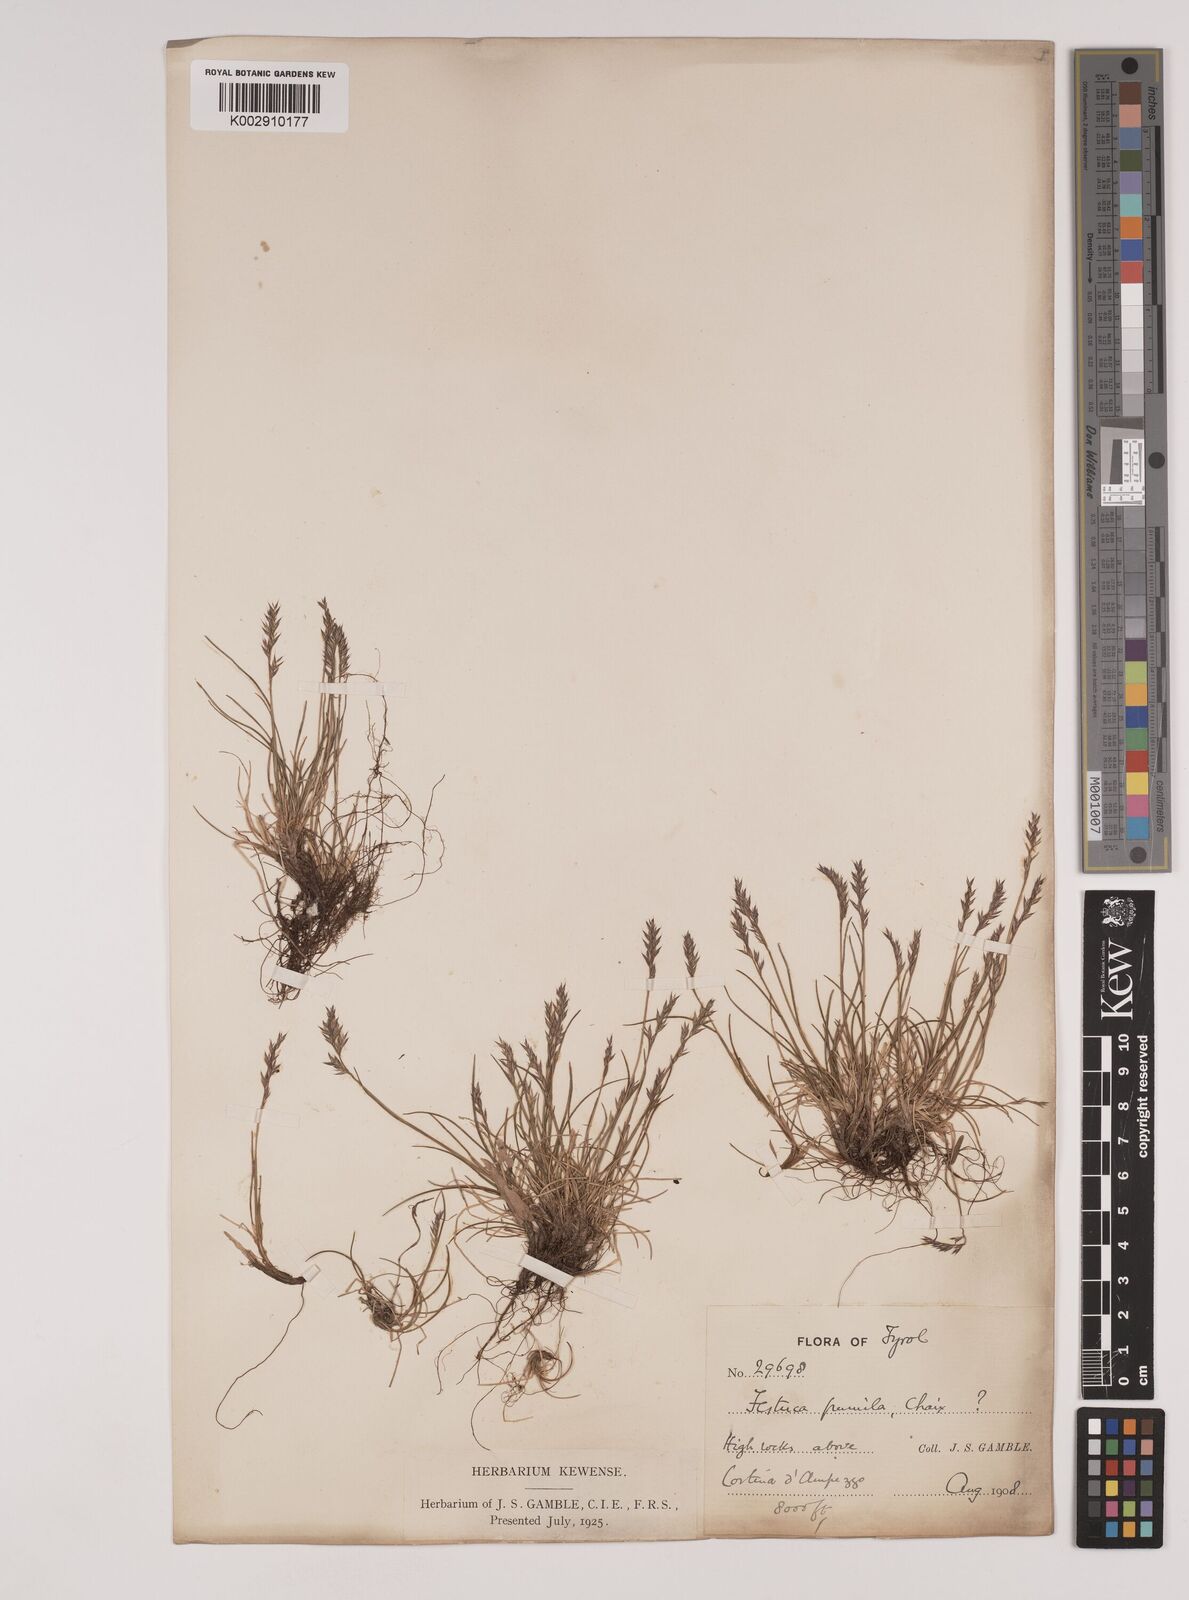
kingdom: Plantae
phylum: Tracheophyta
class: Liliopsida
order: Poales
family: Poaceae
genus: Festuca
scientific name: Festuca quadriflora
